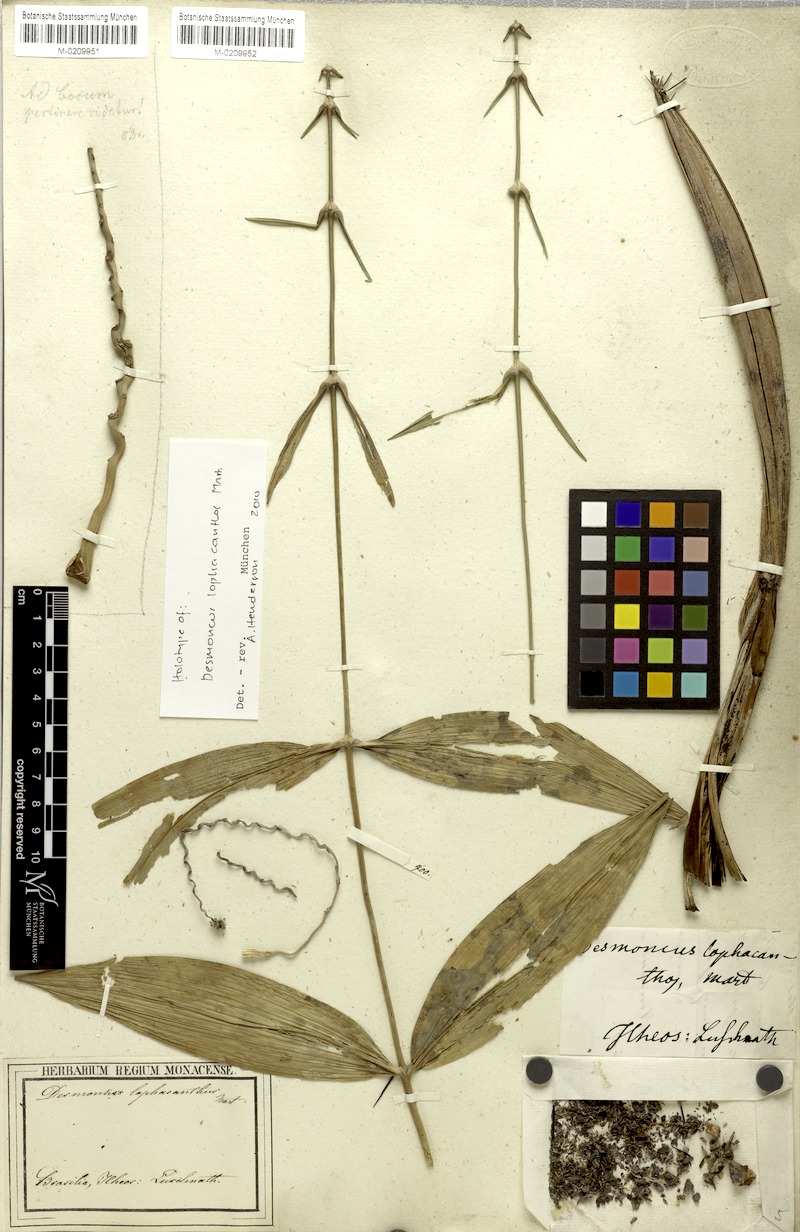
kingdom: Plantae
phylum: Tracheophyta
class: Liliopsida
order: Arecales
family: Arecaceae
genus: Cocos
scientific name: Cocos
